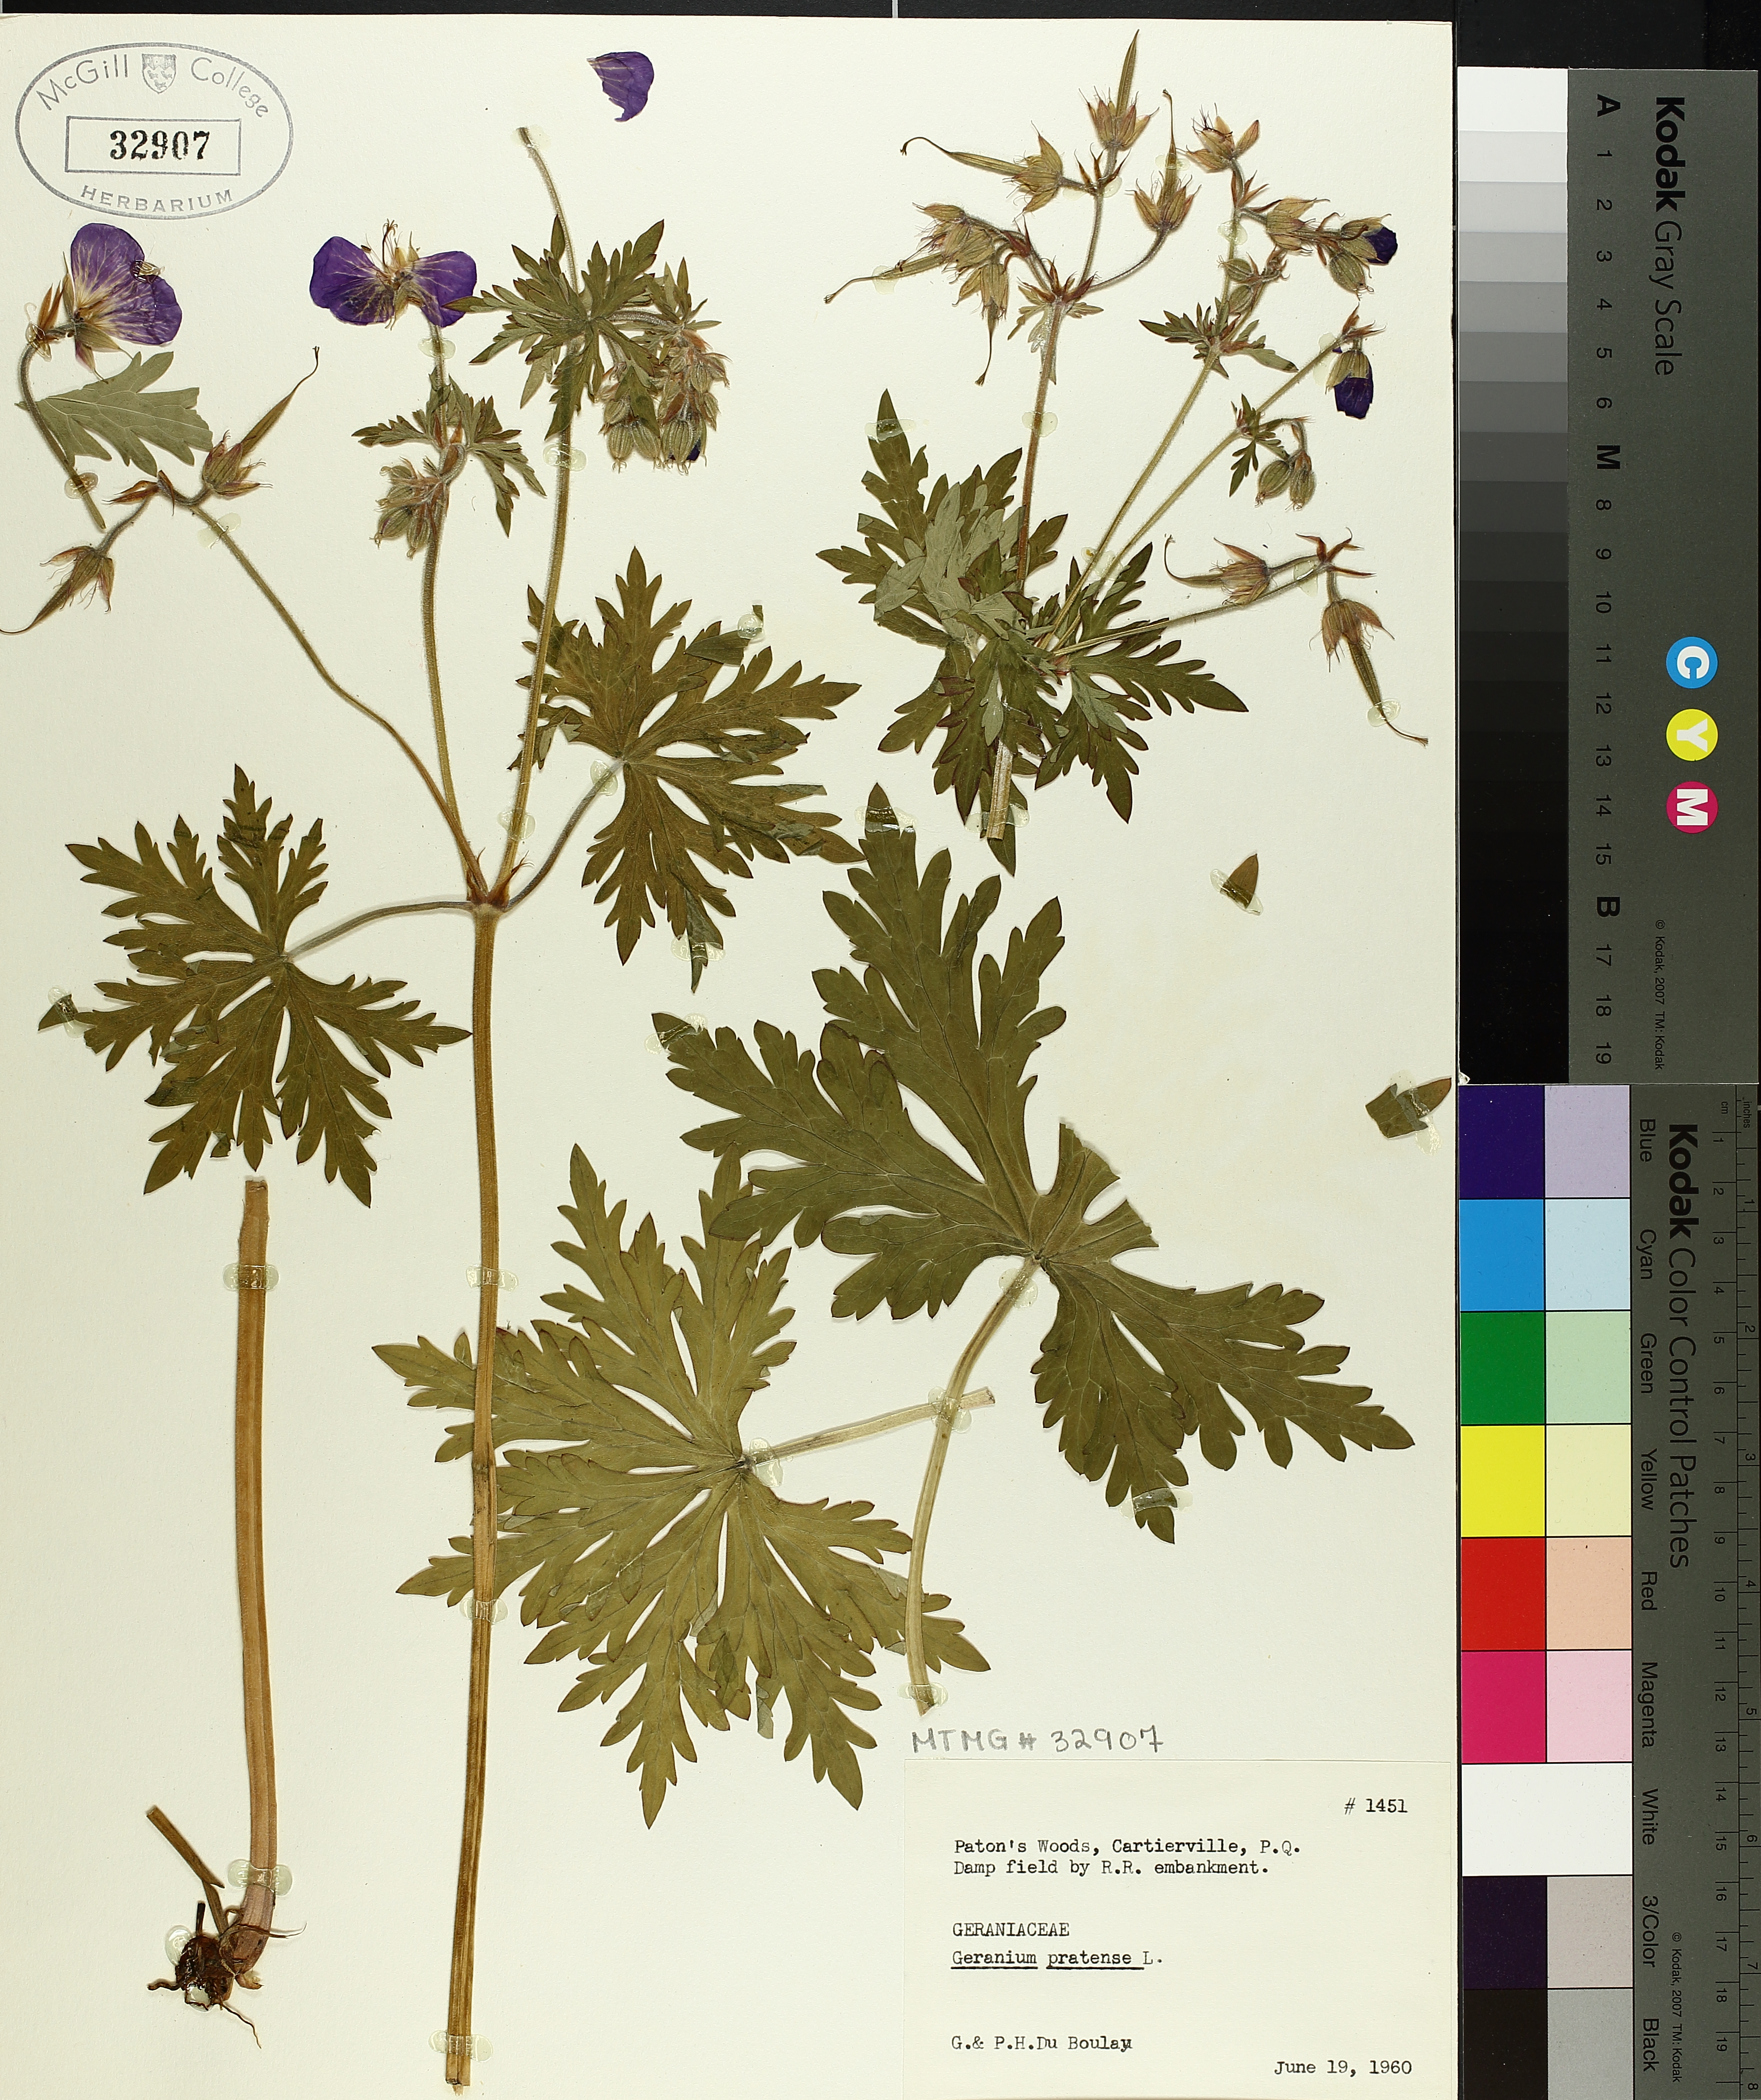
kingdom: Plantae
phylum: Tracheophyta
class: Magnoliopsida
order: Geraniales
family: Geraniaceae
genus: Geranium
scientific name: Geranium pratense
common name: Meadow crane's-bill
